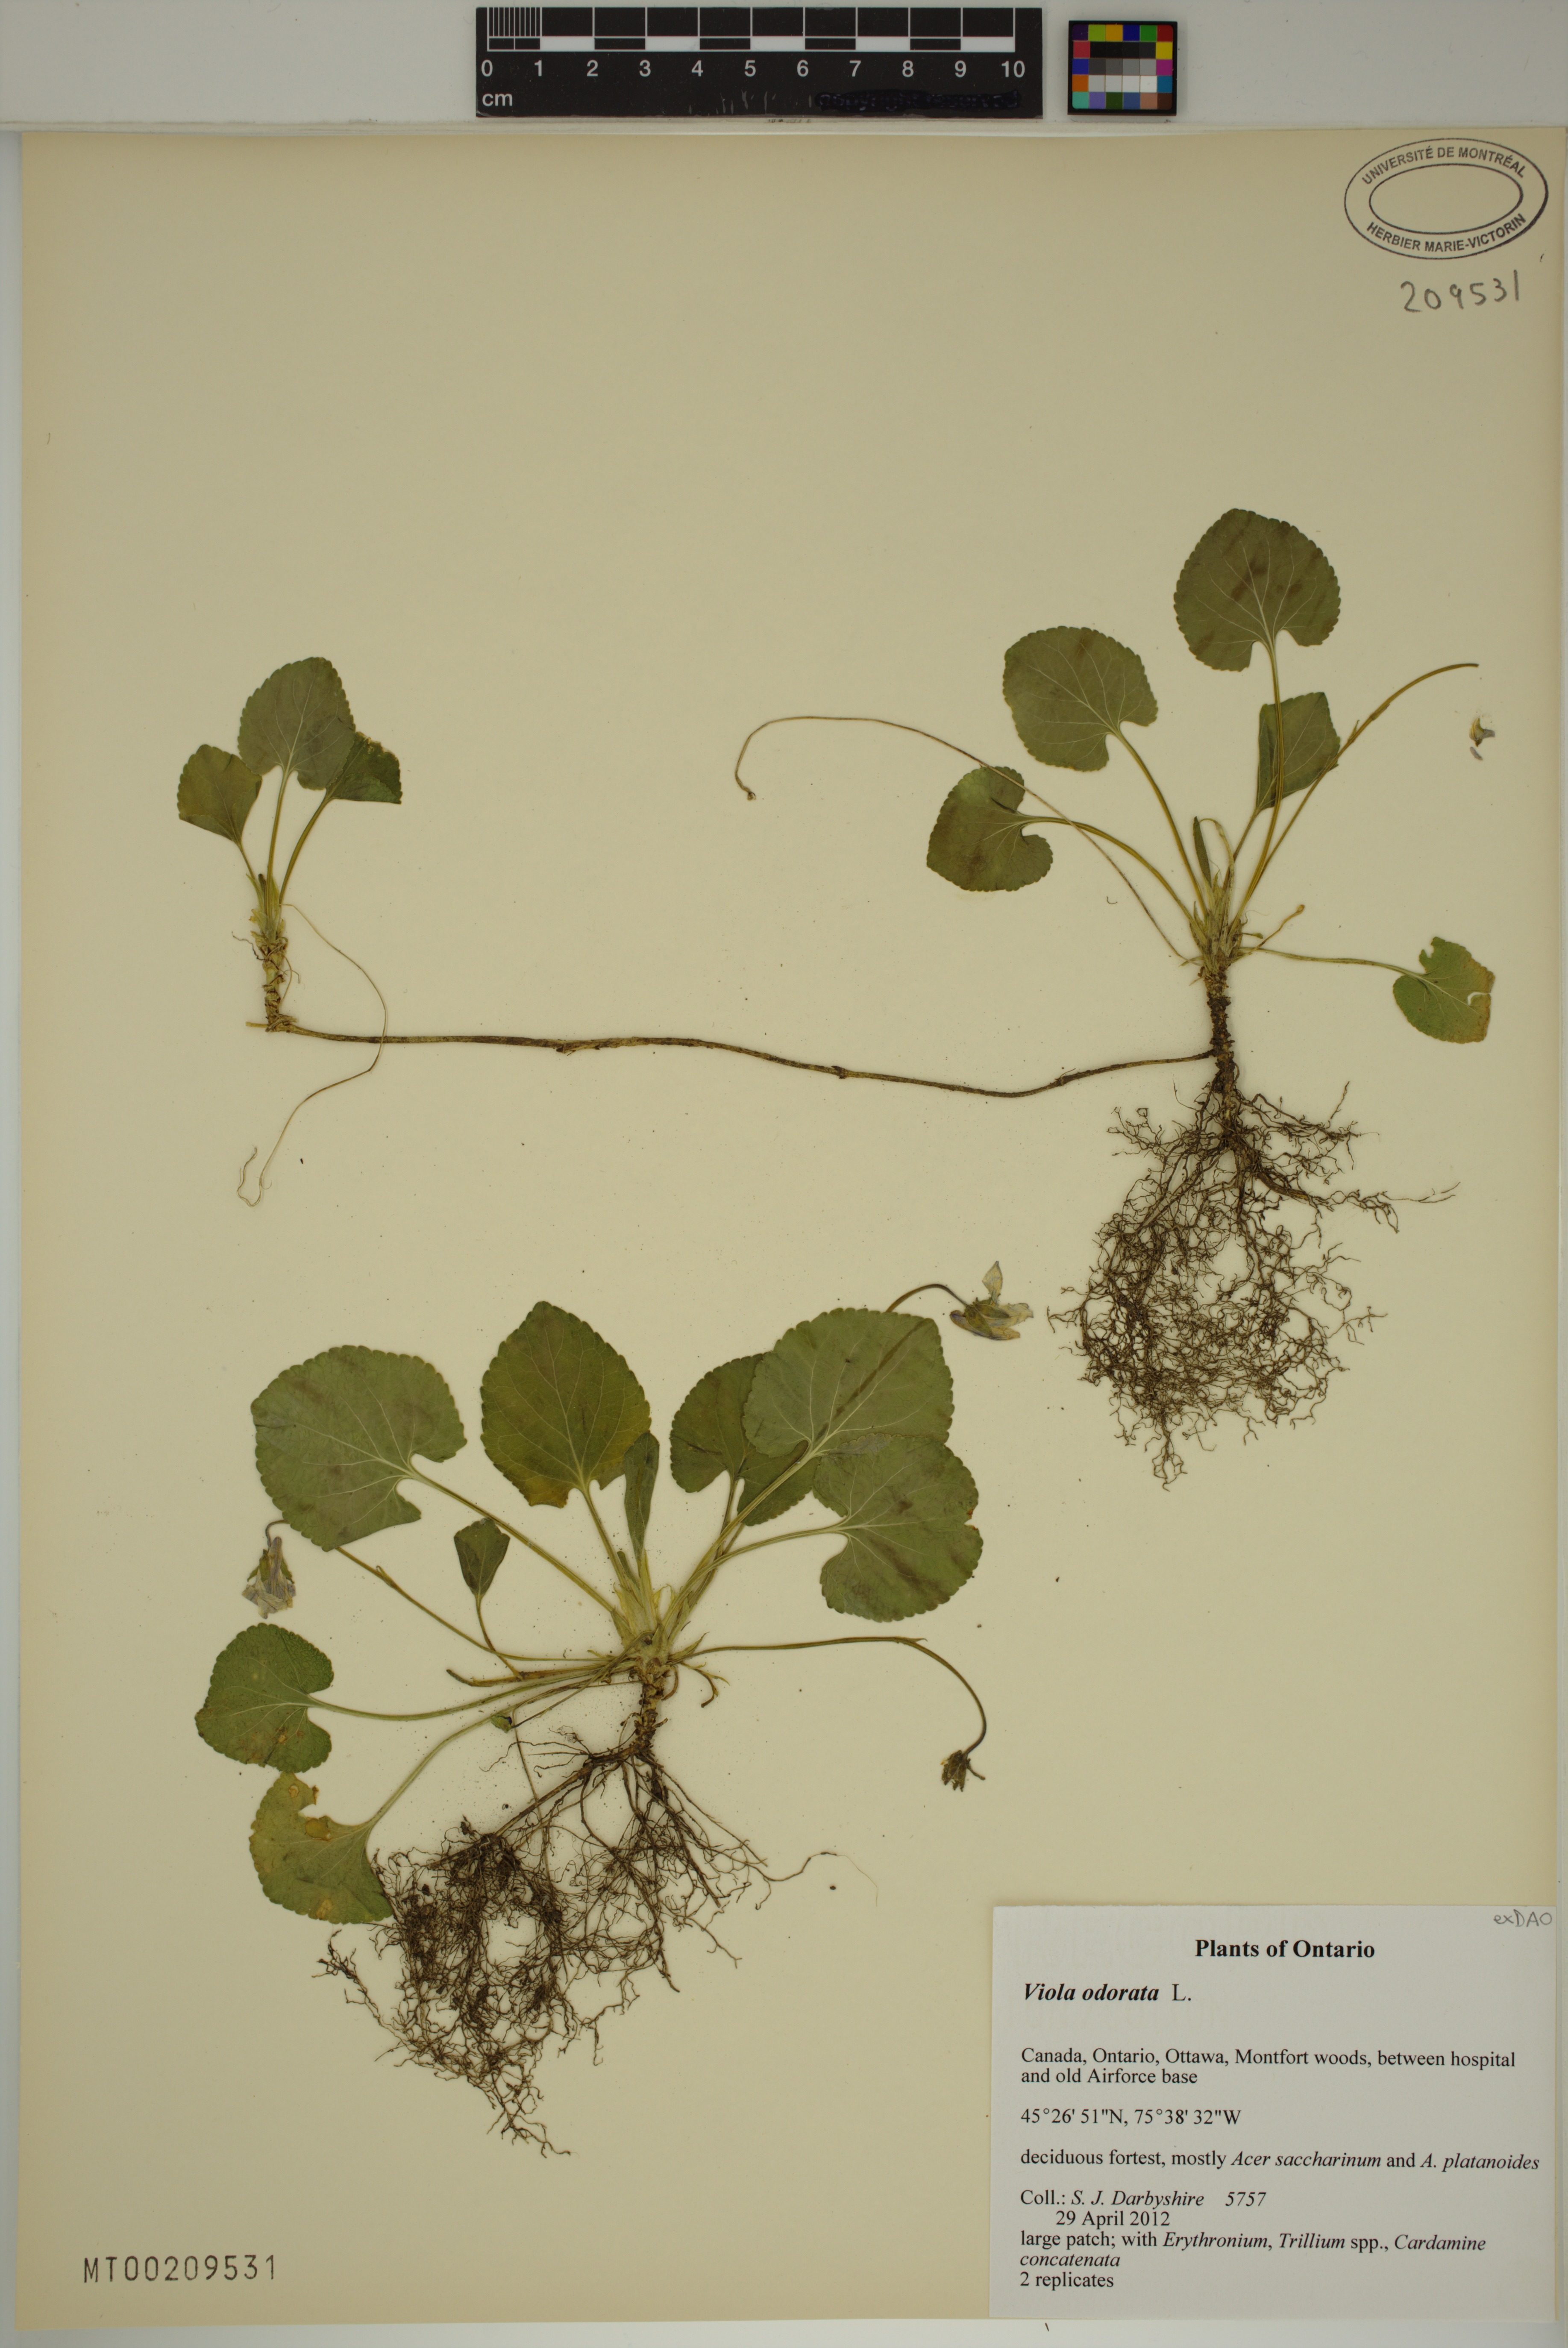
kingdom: Plantae
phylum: Tracheophyta
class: Magnoliopsida
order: Malpighiales
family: Violaceae
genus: Viola
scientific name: Viola odorata
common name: Sweet violet
